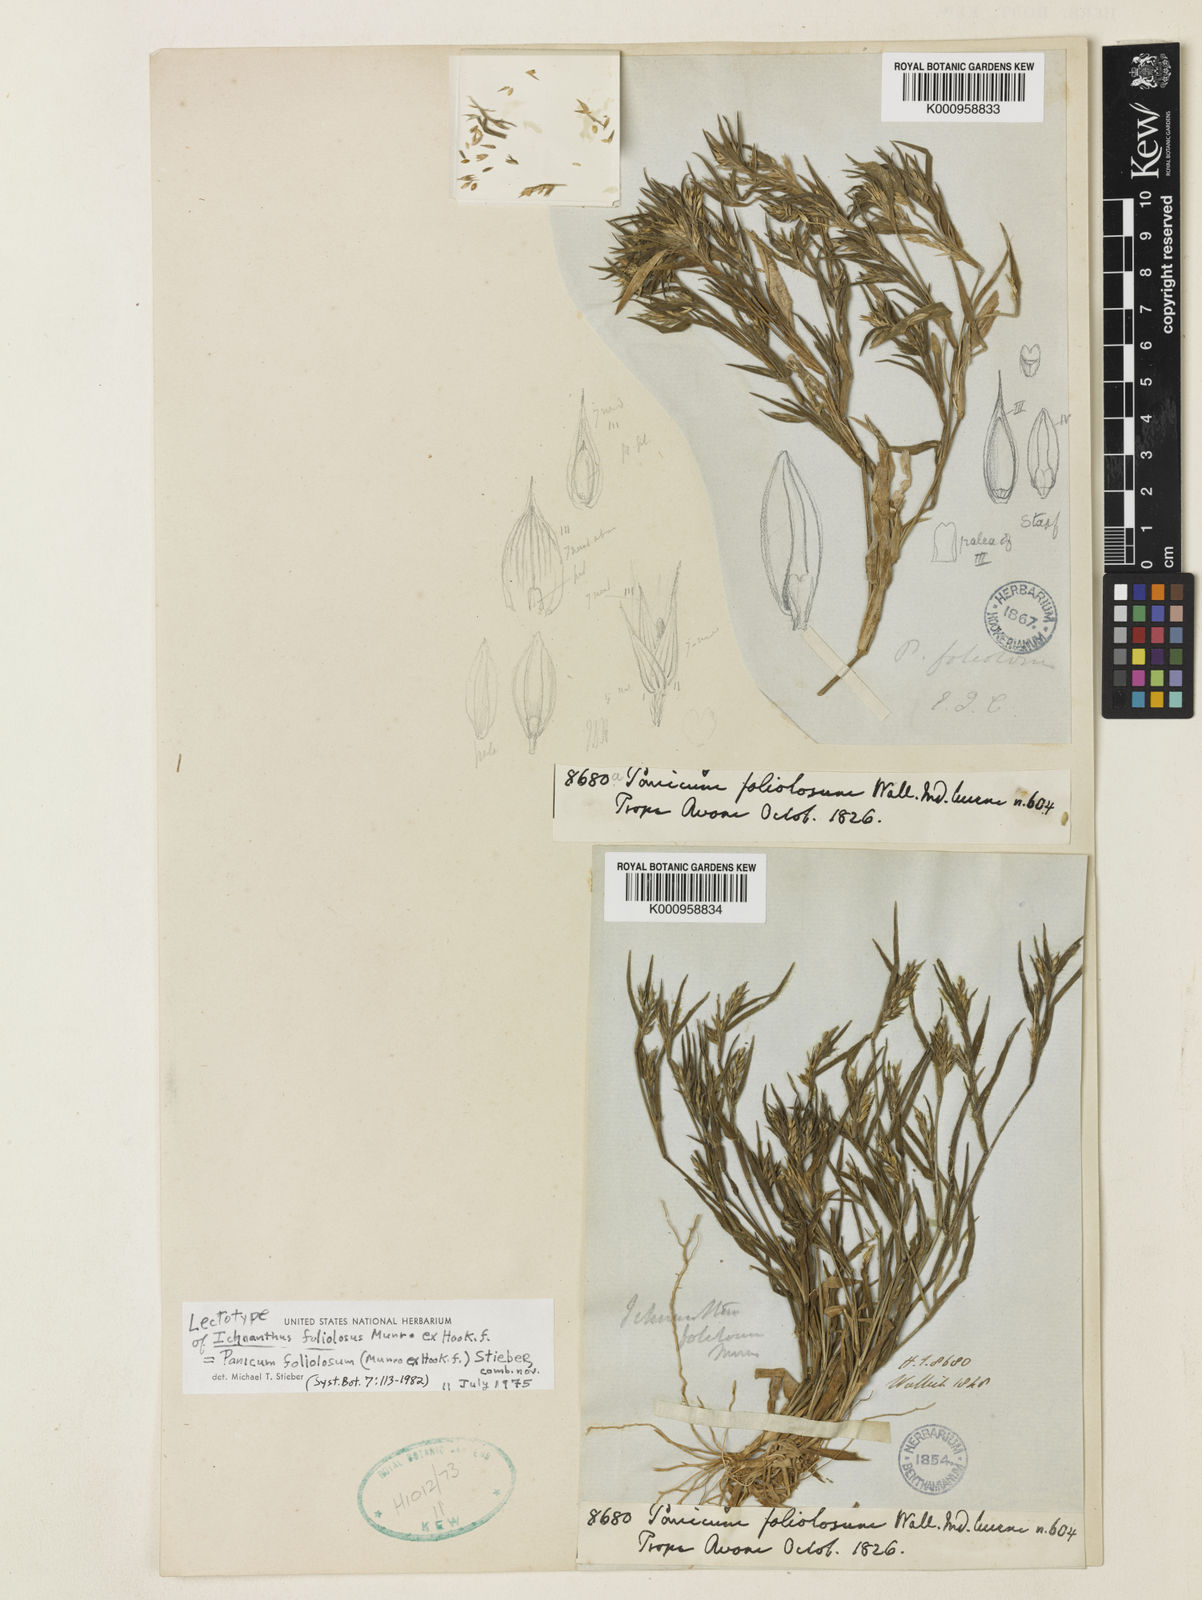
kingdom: Plantae
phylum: Tracheophyta
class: Liliopsida
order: Poales
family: Poaceae
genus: Panicum
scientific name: Panicum foliolosum
